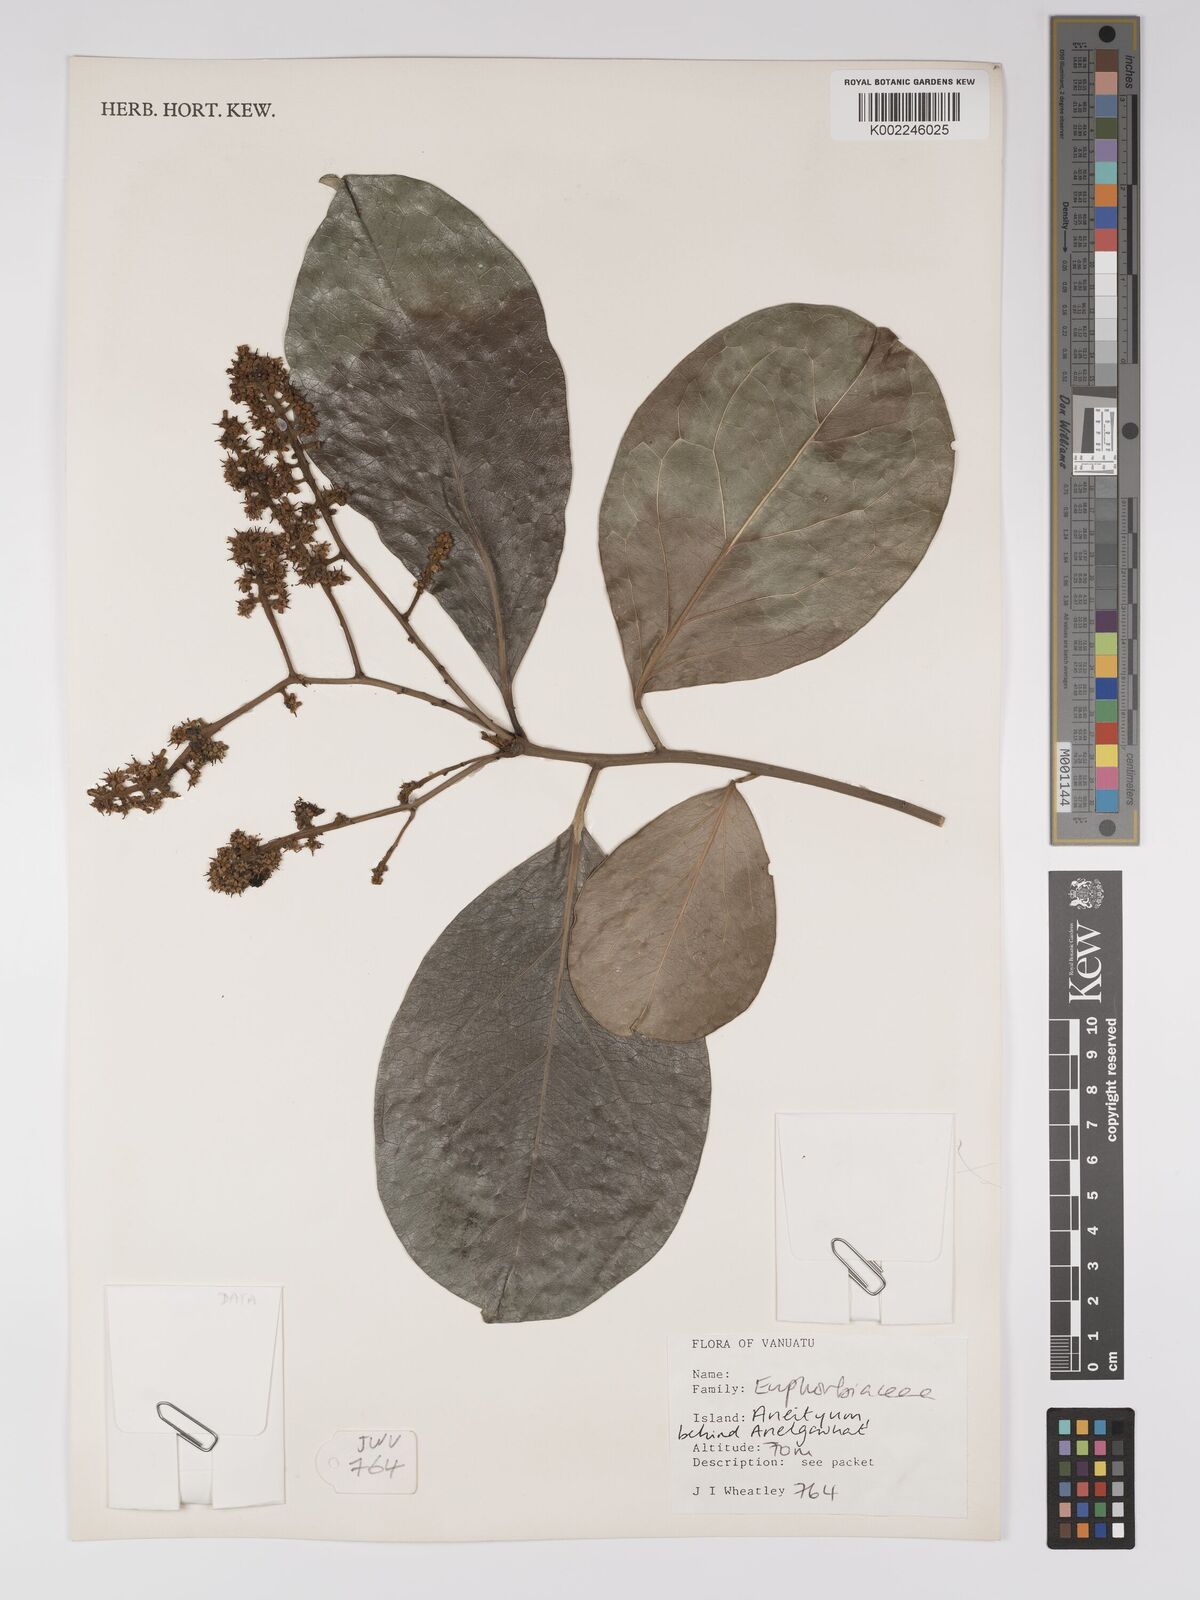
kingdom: Plantae
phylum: Tracheophyta
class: Magnoliopsida
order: Malpighiales
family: Euphorbiaceae
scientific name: Euphorbiaceae
